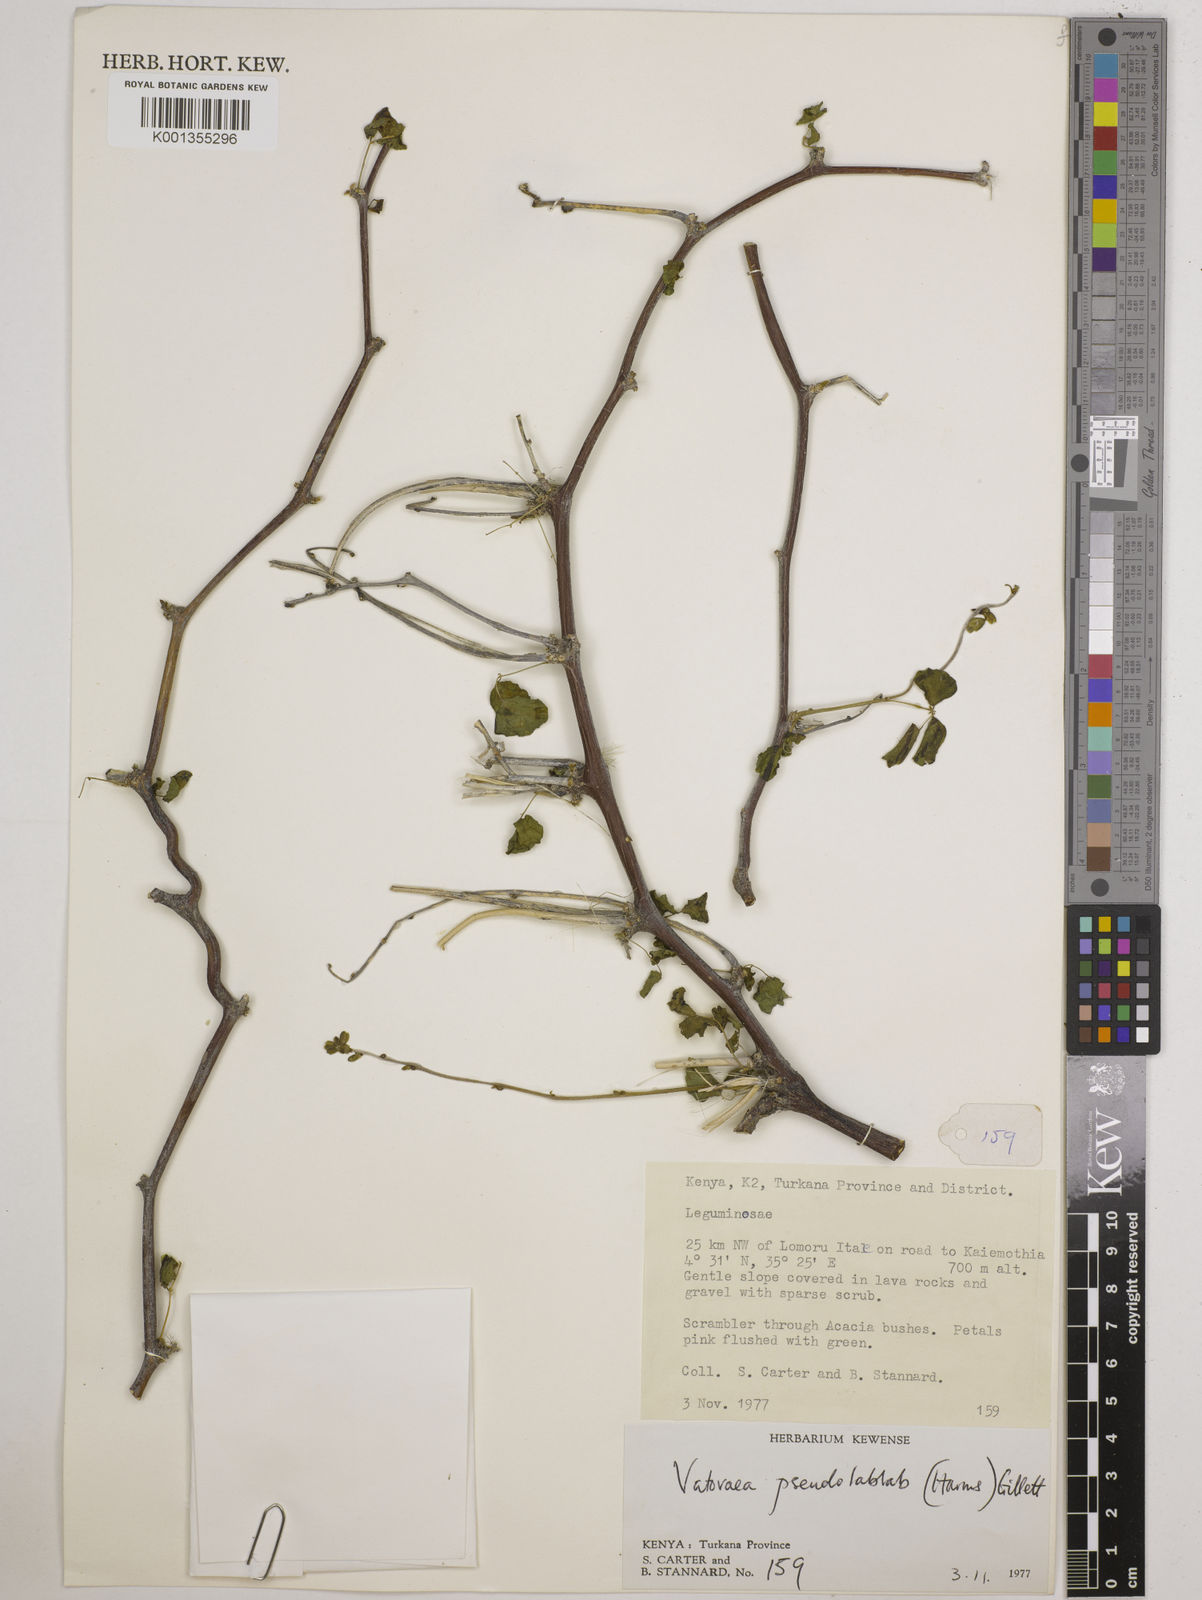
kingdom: Plantae
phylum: Tracheophyta
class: Magnoliopsida
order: Fabales
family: Fabaceae
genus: Vatovaea
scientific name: Vatovaea pseudolablab
